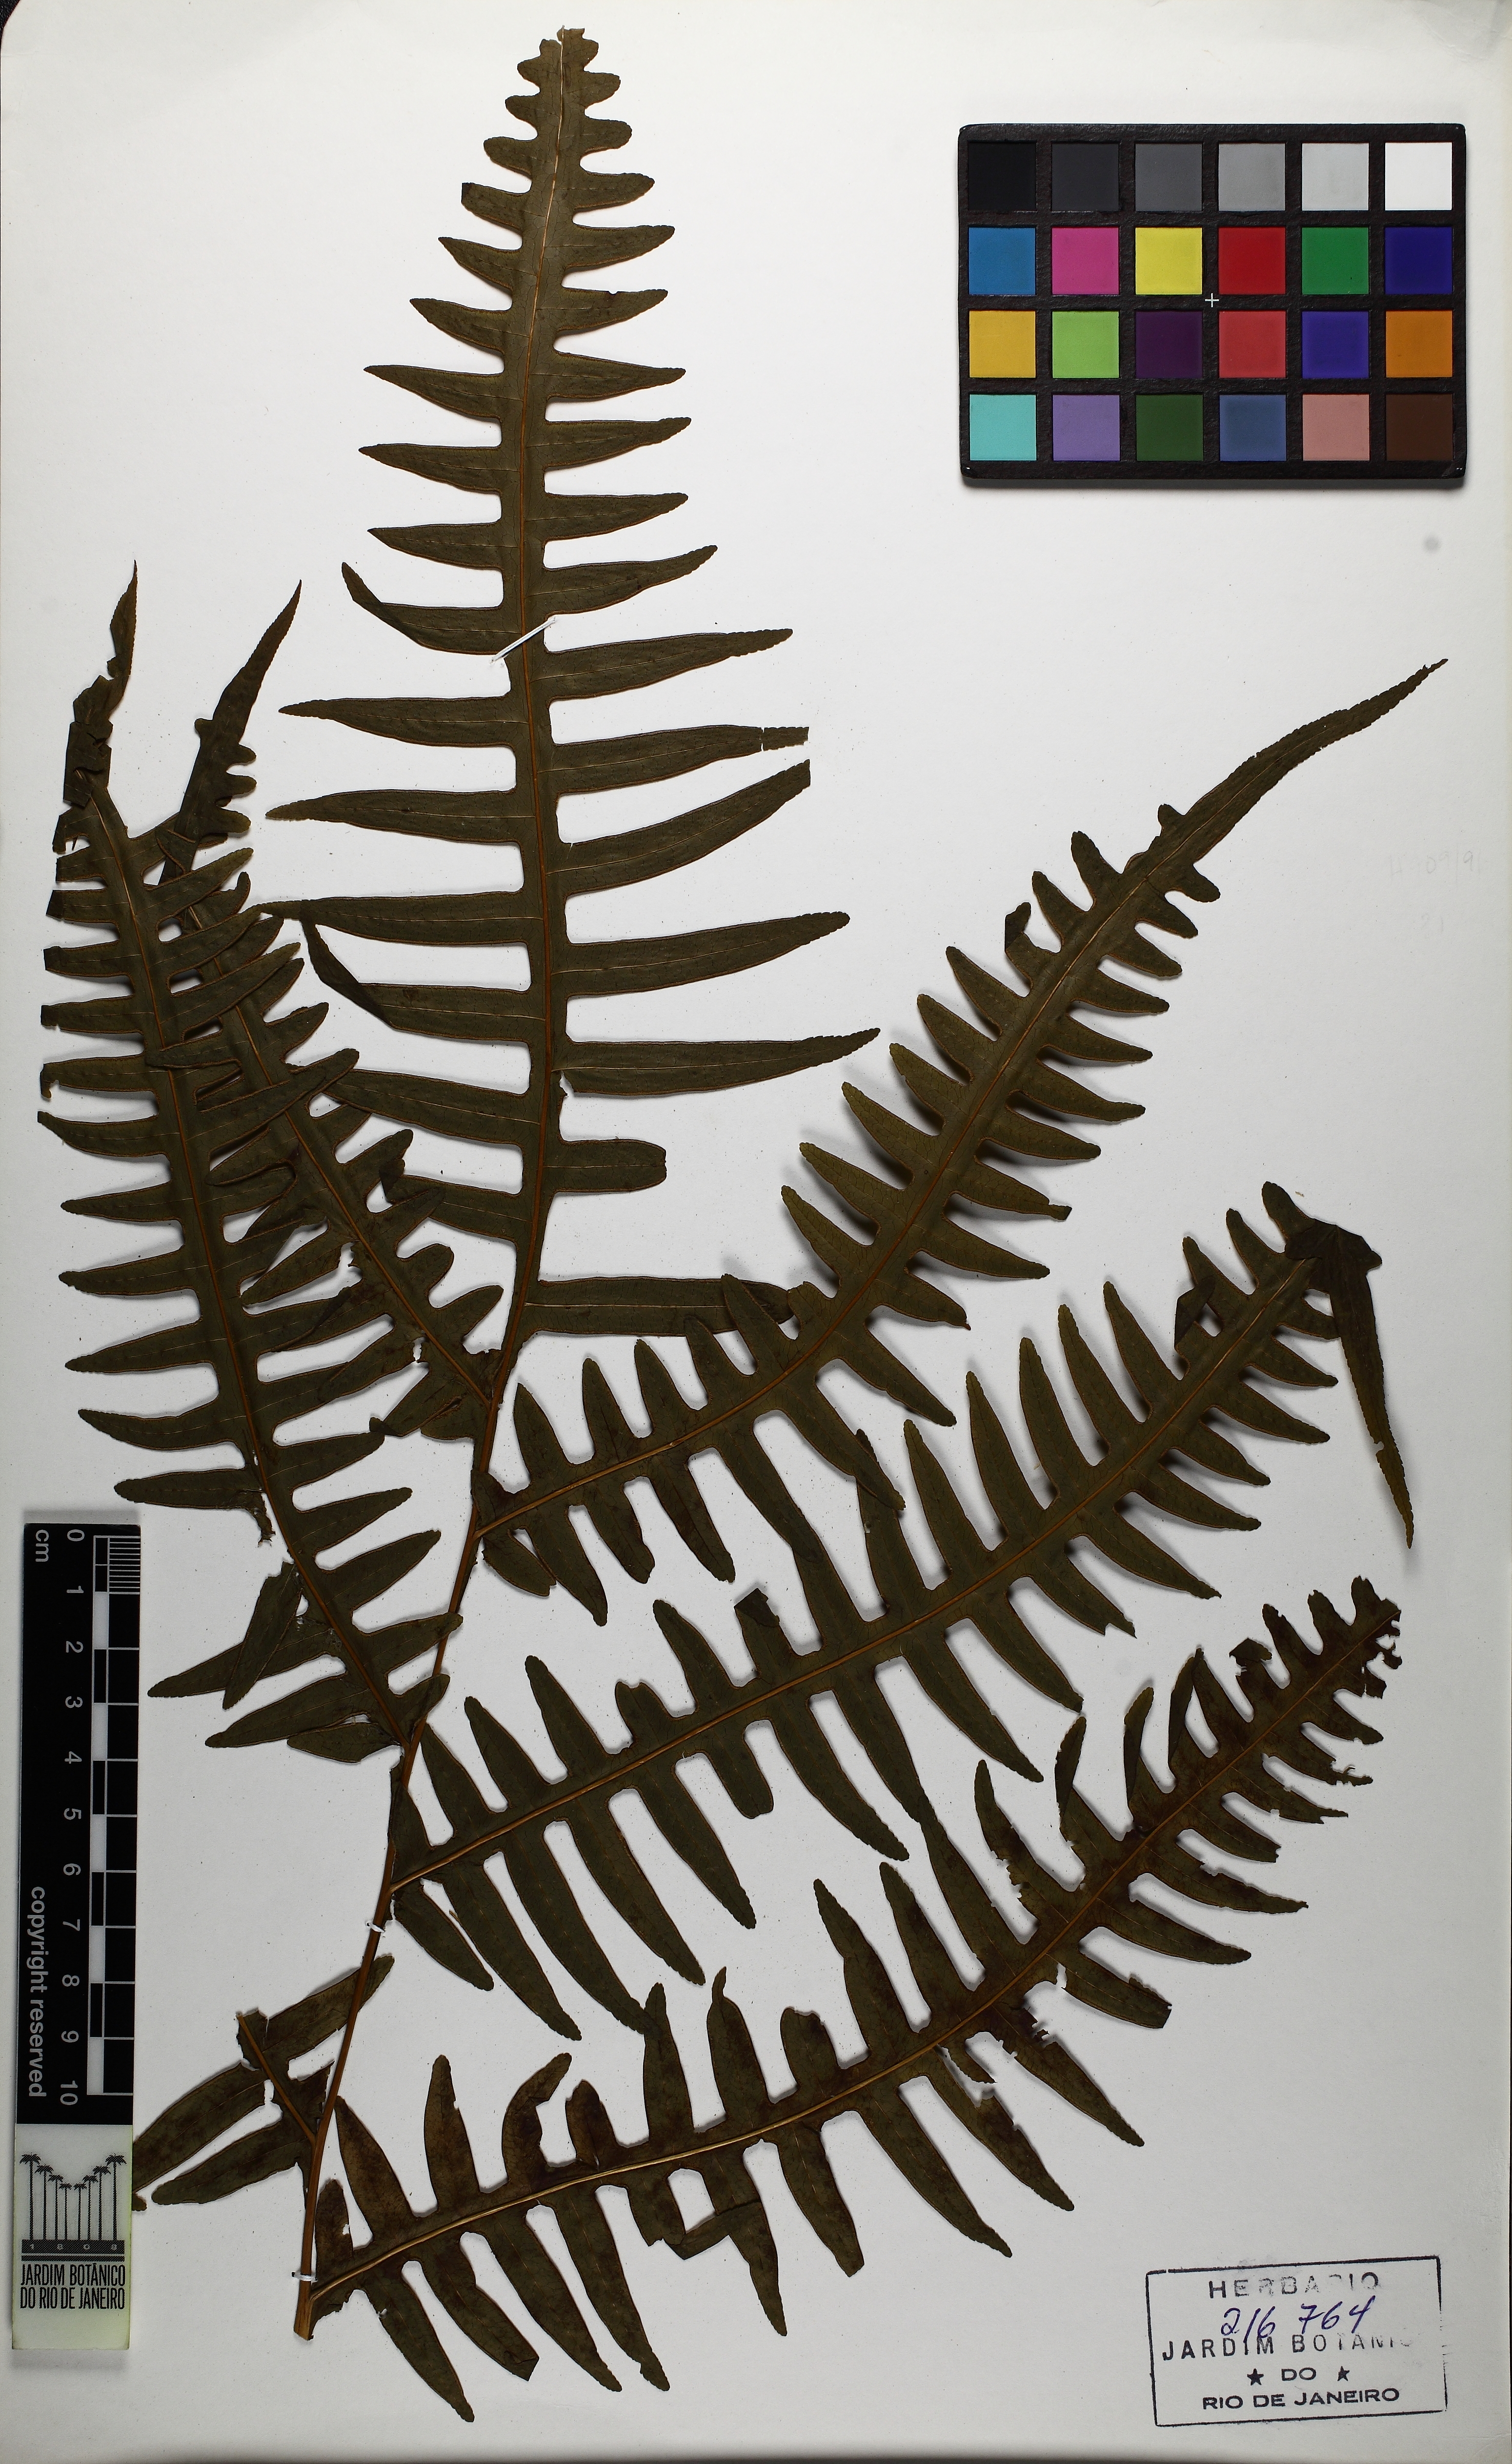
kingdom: Plantae
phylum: Tracheophyta
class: Polypodiopsida
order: Polypodiales
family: Pteridaceae
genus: Pteris
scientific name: Pteris decurrens
